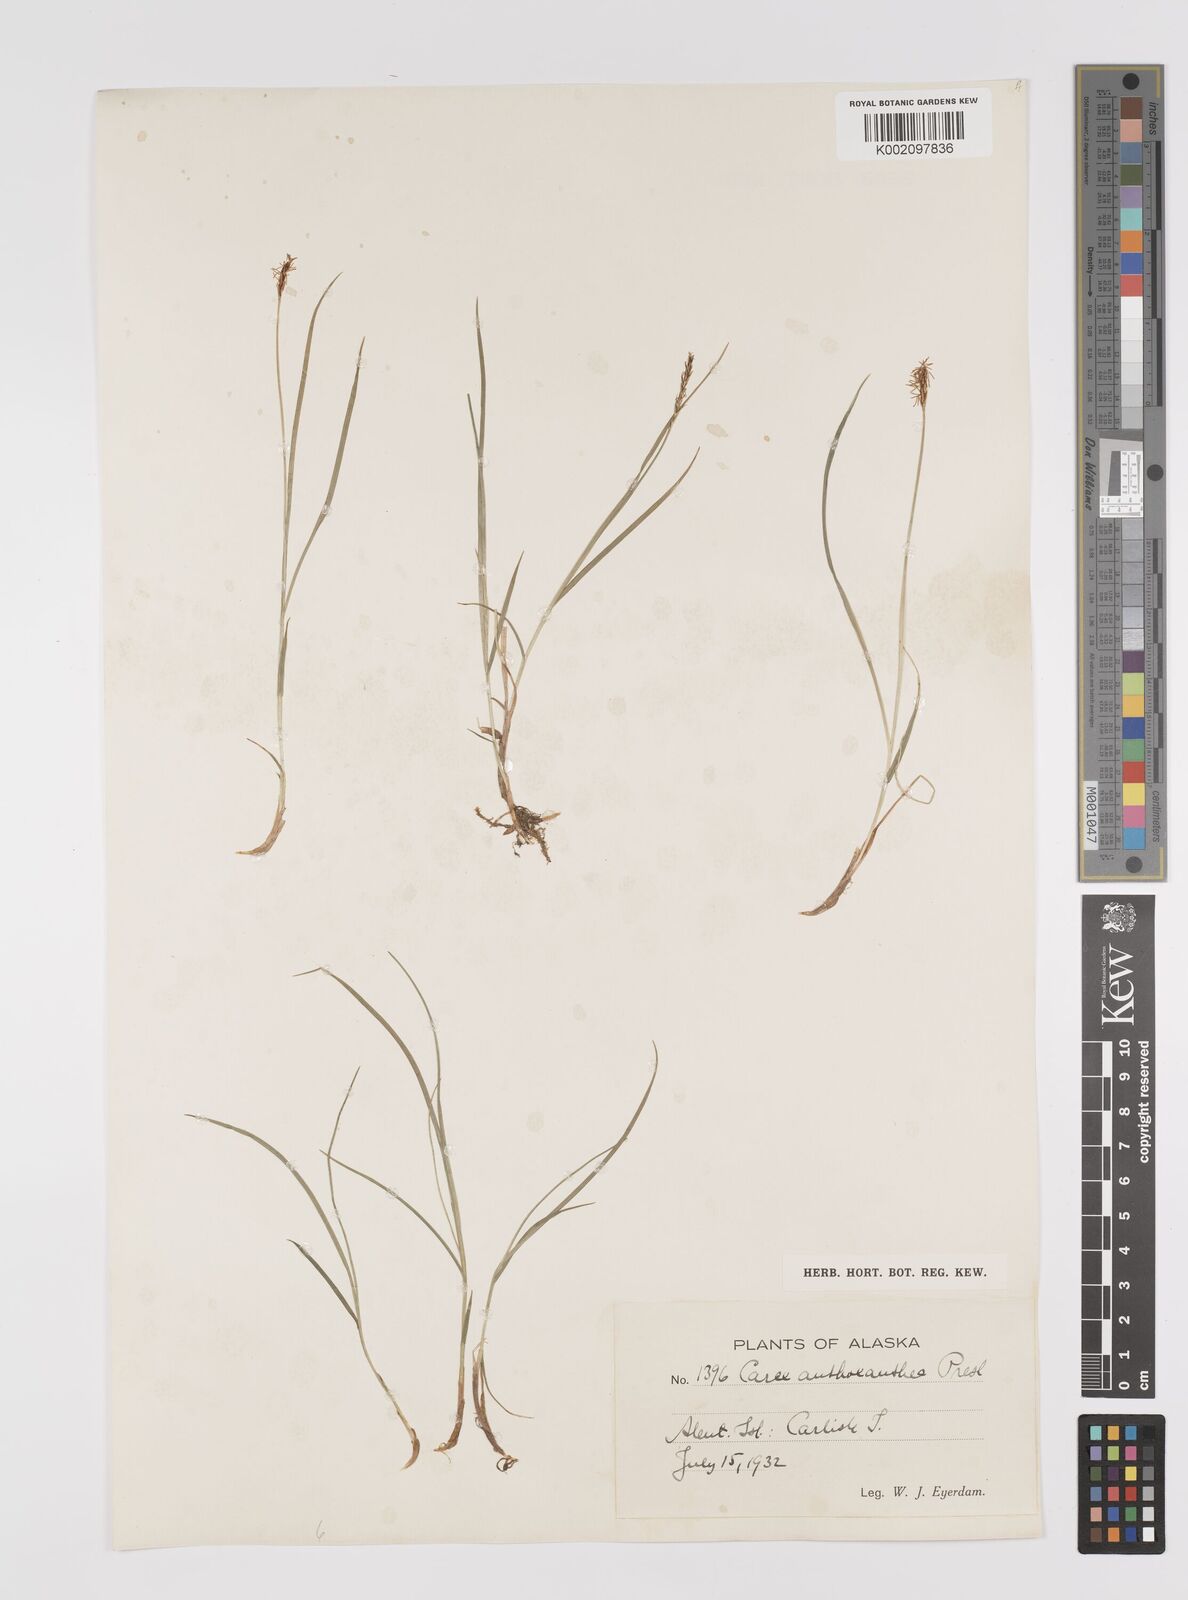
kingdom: Plantae
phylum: Tracheophyta
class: Liliopsida
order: Poales
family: Cyperaceae
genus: Carex
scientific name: Carex anthoxanthea
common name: Grassy-slope arctic sedge
